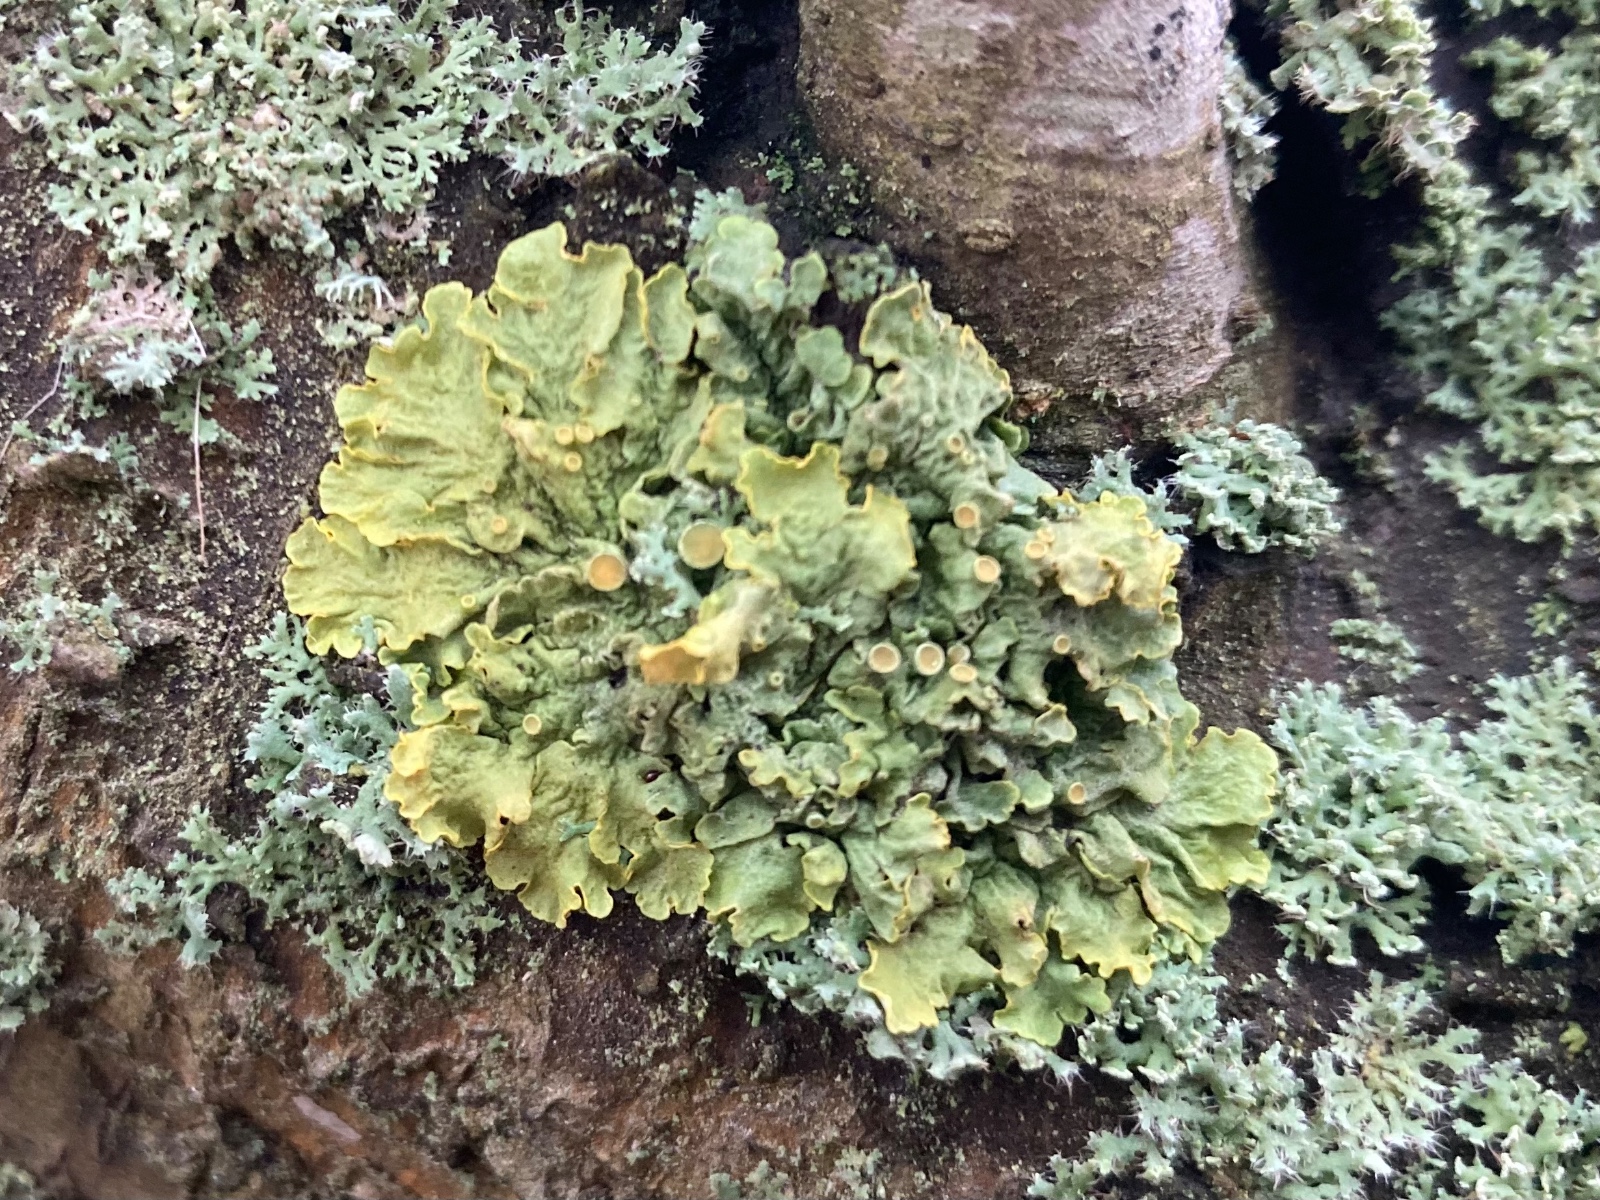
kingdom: Fungi
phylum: Ascomycota
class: Lecanoromycetes
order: Teloschistales
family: Teloschistaceae
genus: Xanthoria
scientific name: Xanthoria parietina
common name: almindelig væggelav
